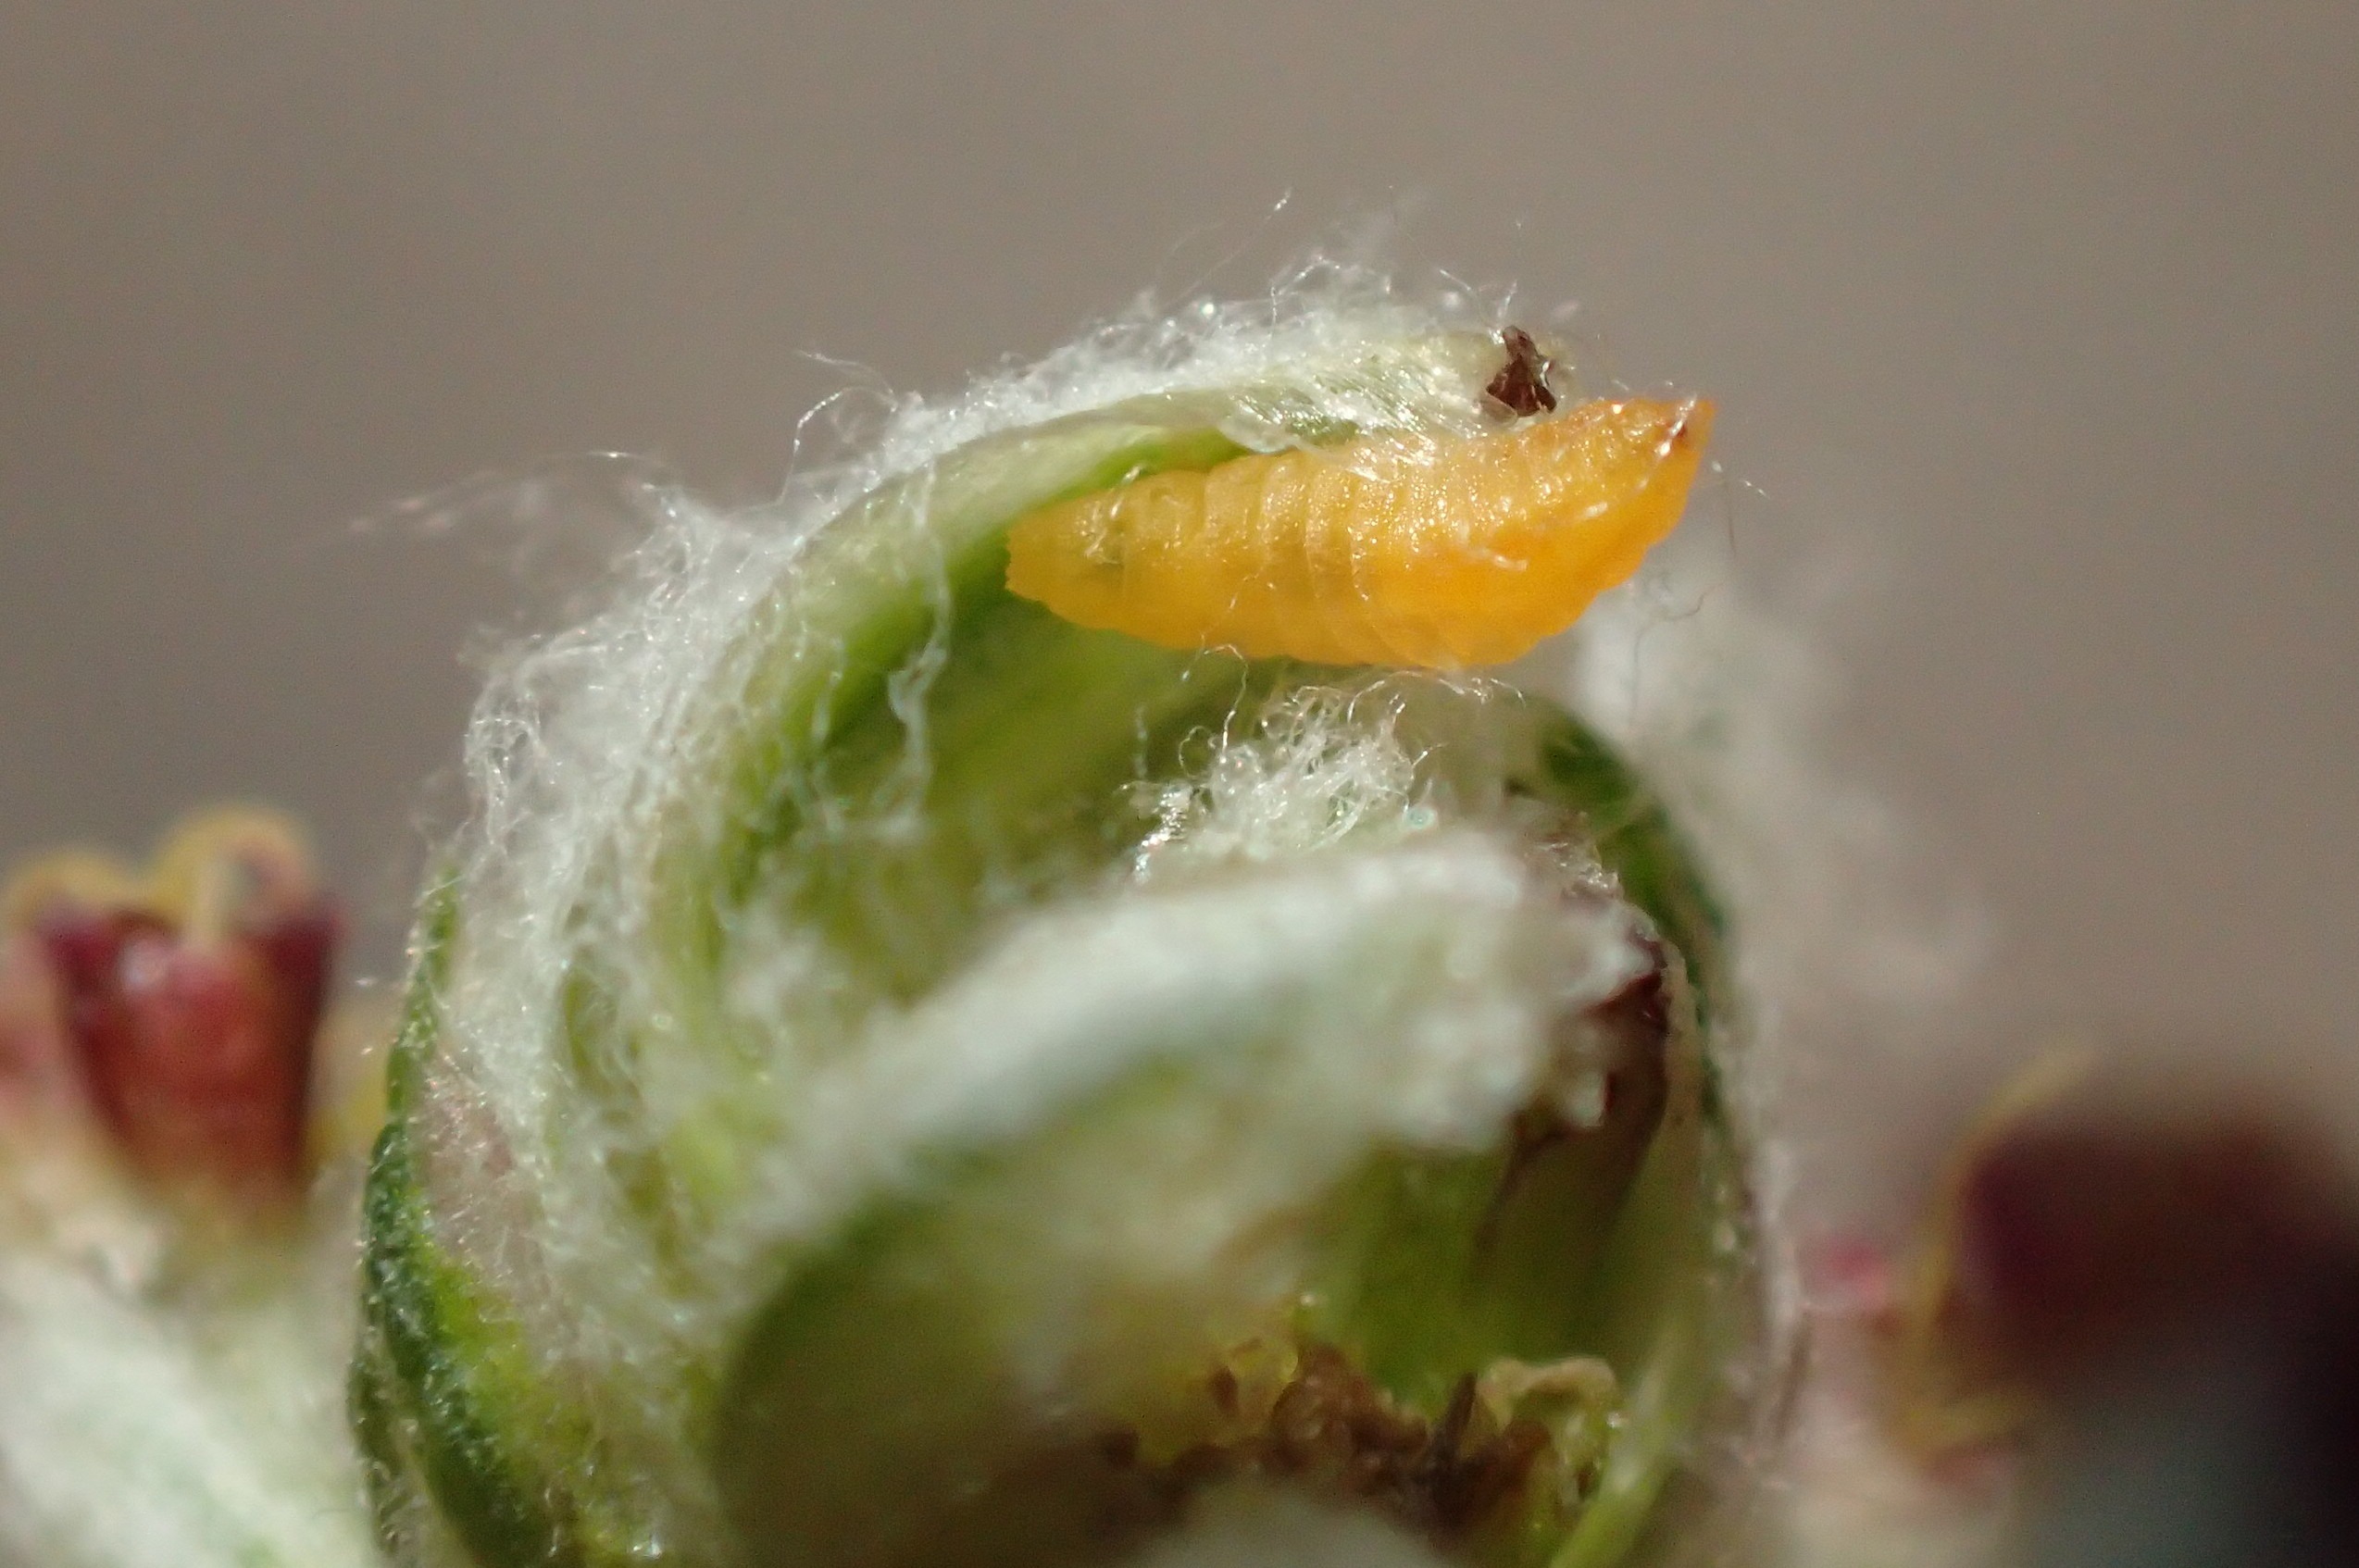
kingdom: Animalia
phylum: Arthropoda
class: Insecta
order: Diptera
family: Cecidomyiidae
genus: Ametrodiplosis
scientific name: Ametrodiplosis rudimentalis
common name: Bynkekurvgalmyg
